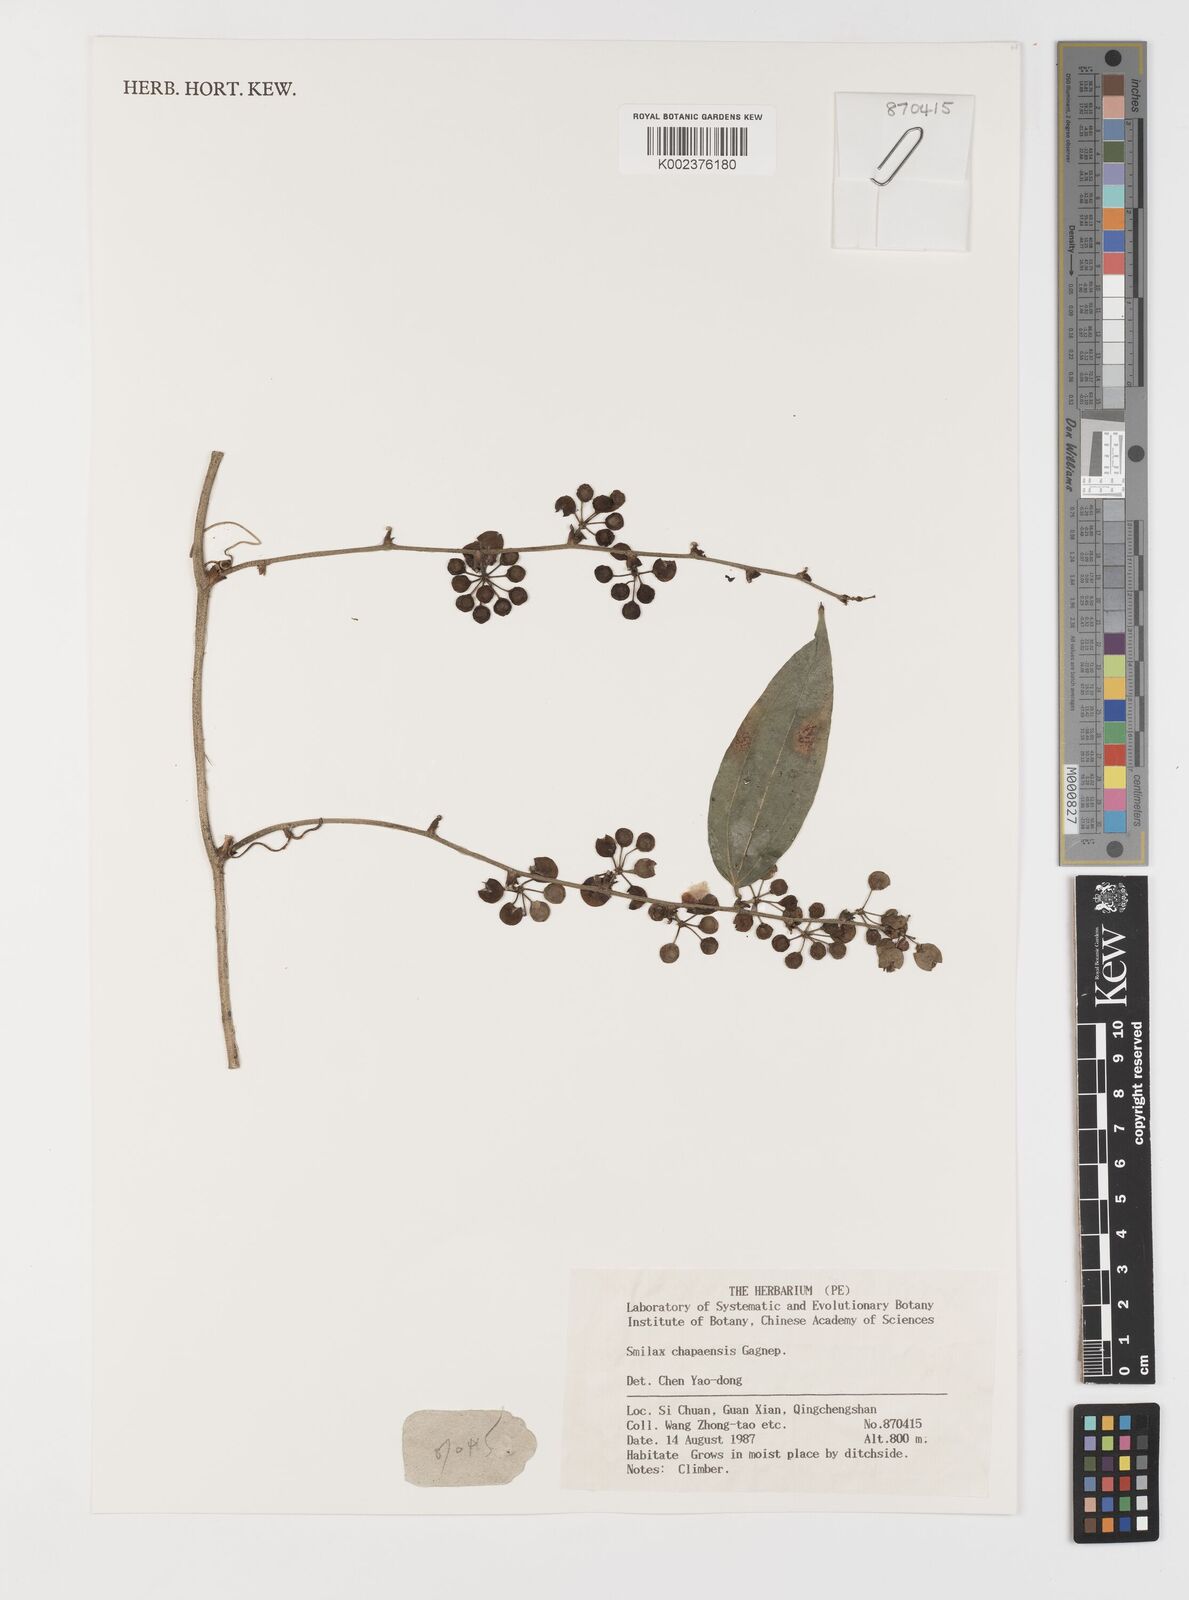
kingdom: Plantae
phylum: Tracheophyta
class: Liliopsida
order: Liliales
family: Smilacaceae
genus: Smilax
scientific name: Smilax chapaensis
